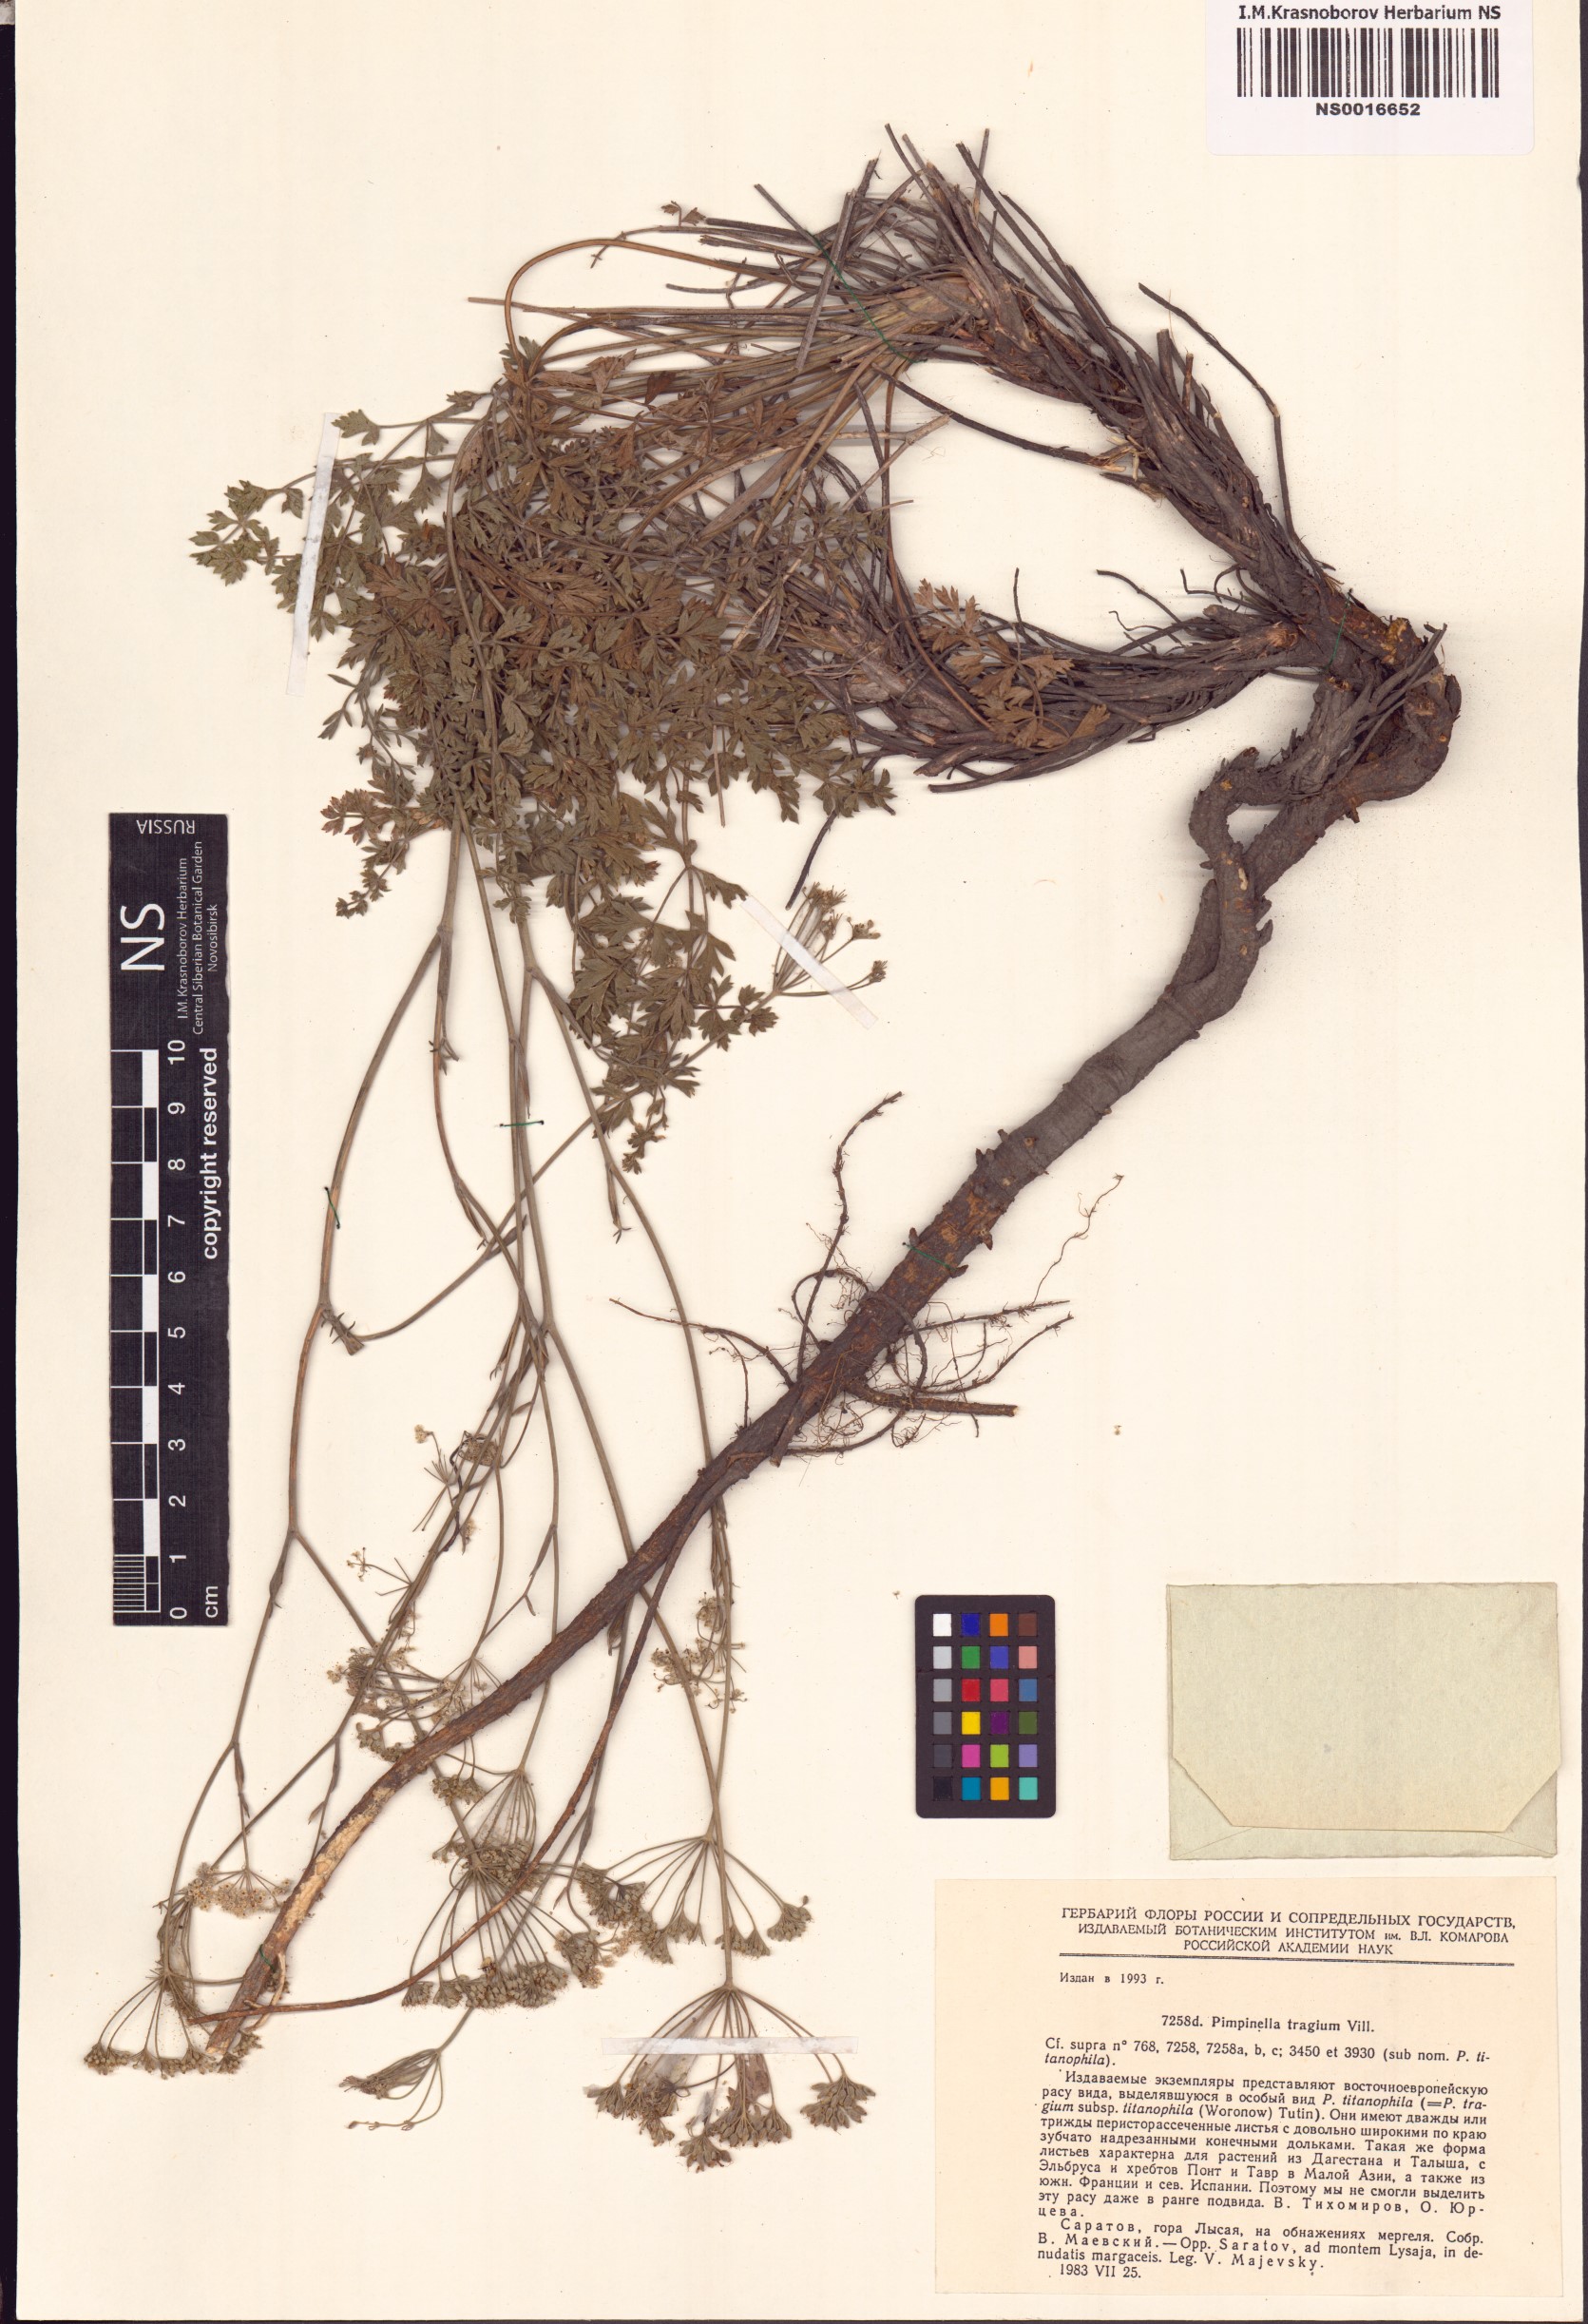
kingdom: Plantae
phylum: Tracheophyta
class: Magnoliopsida
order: Apiales
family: Apiaceae
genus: Pimpinella
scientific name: Pimpinella tragium
